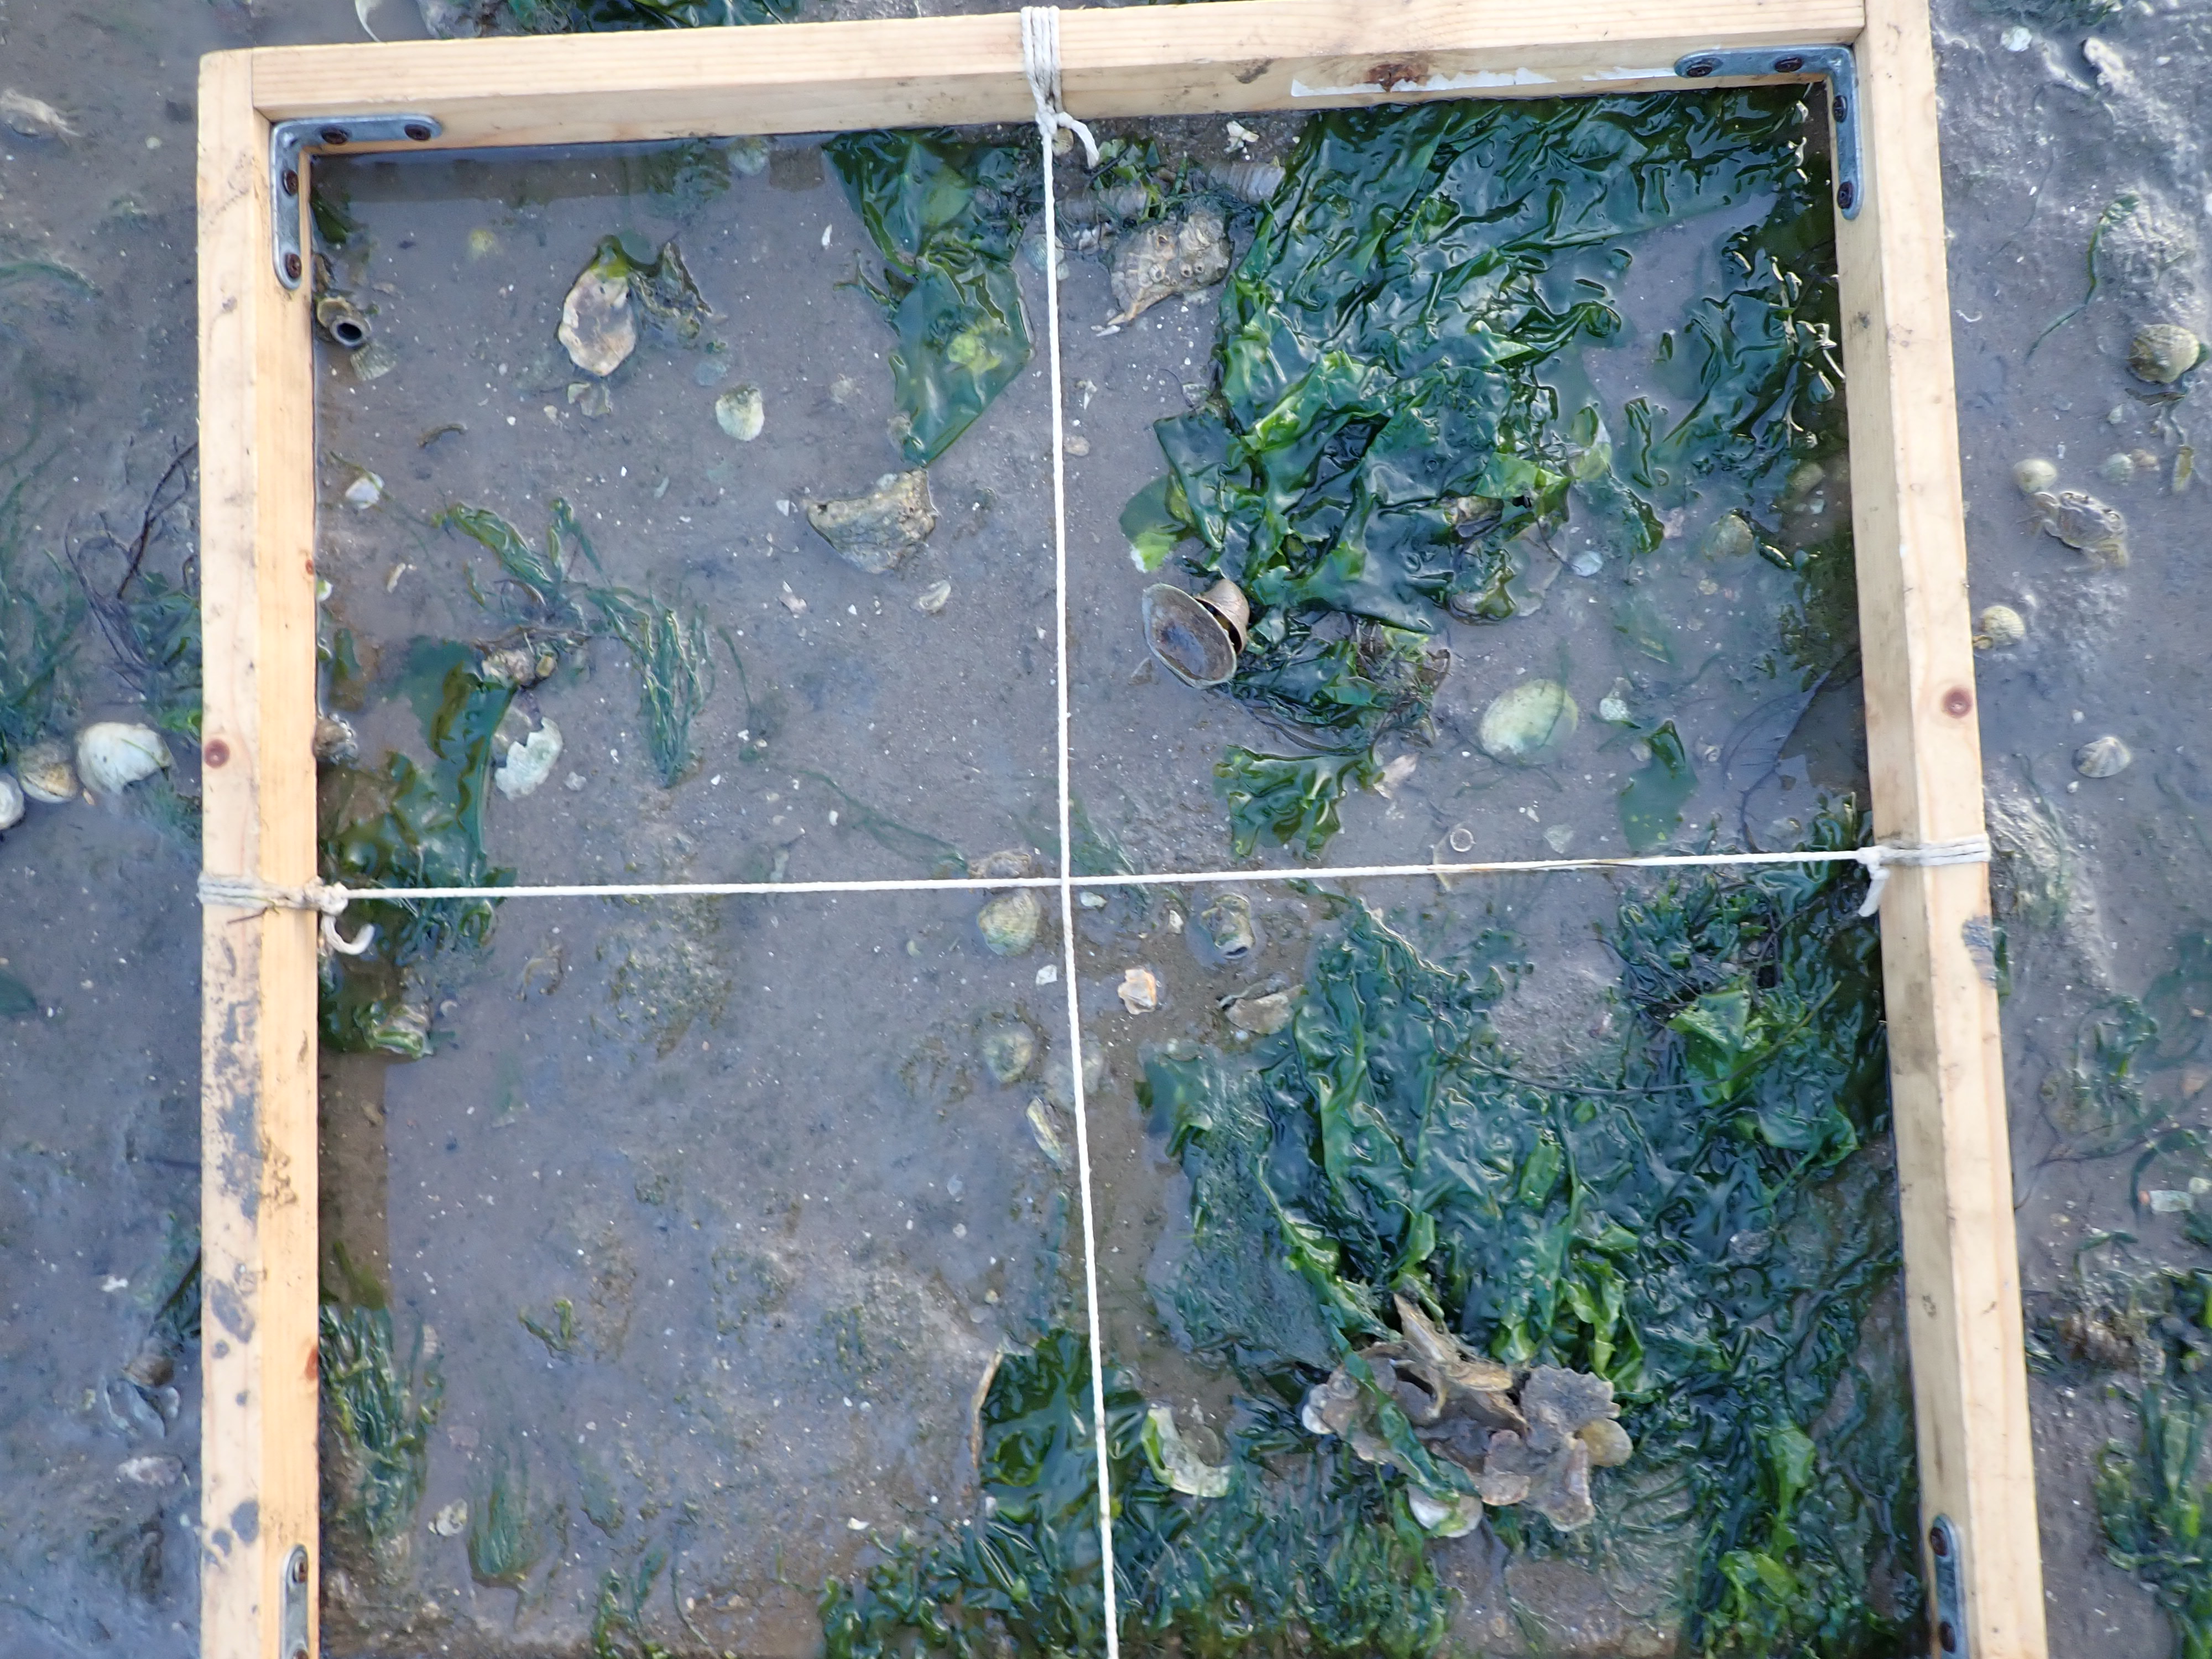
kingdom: Plantae
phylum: Chlorophyta
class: Ulvophyceae
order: Ulvales
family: Ulvaceae
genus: Ulva
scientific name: Ulva
